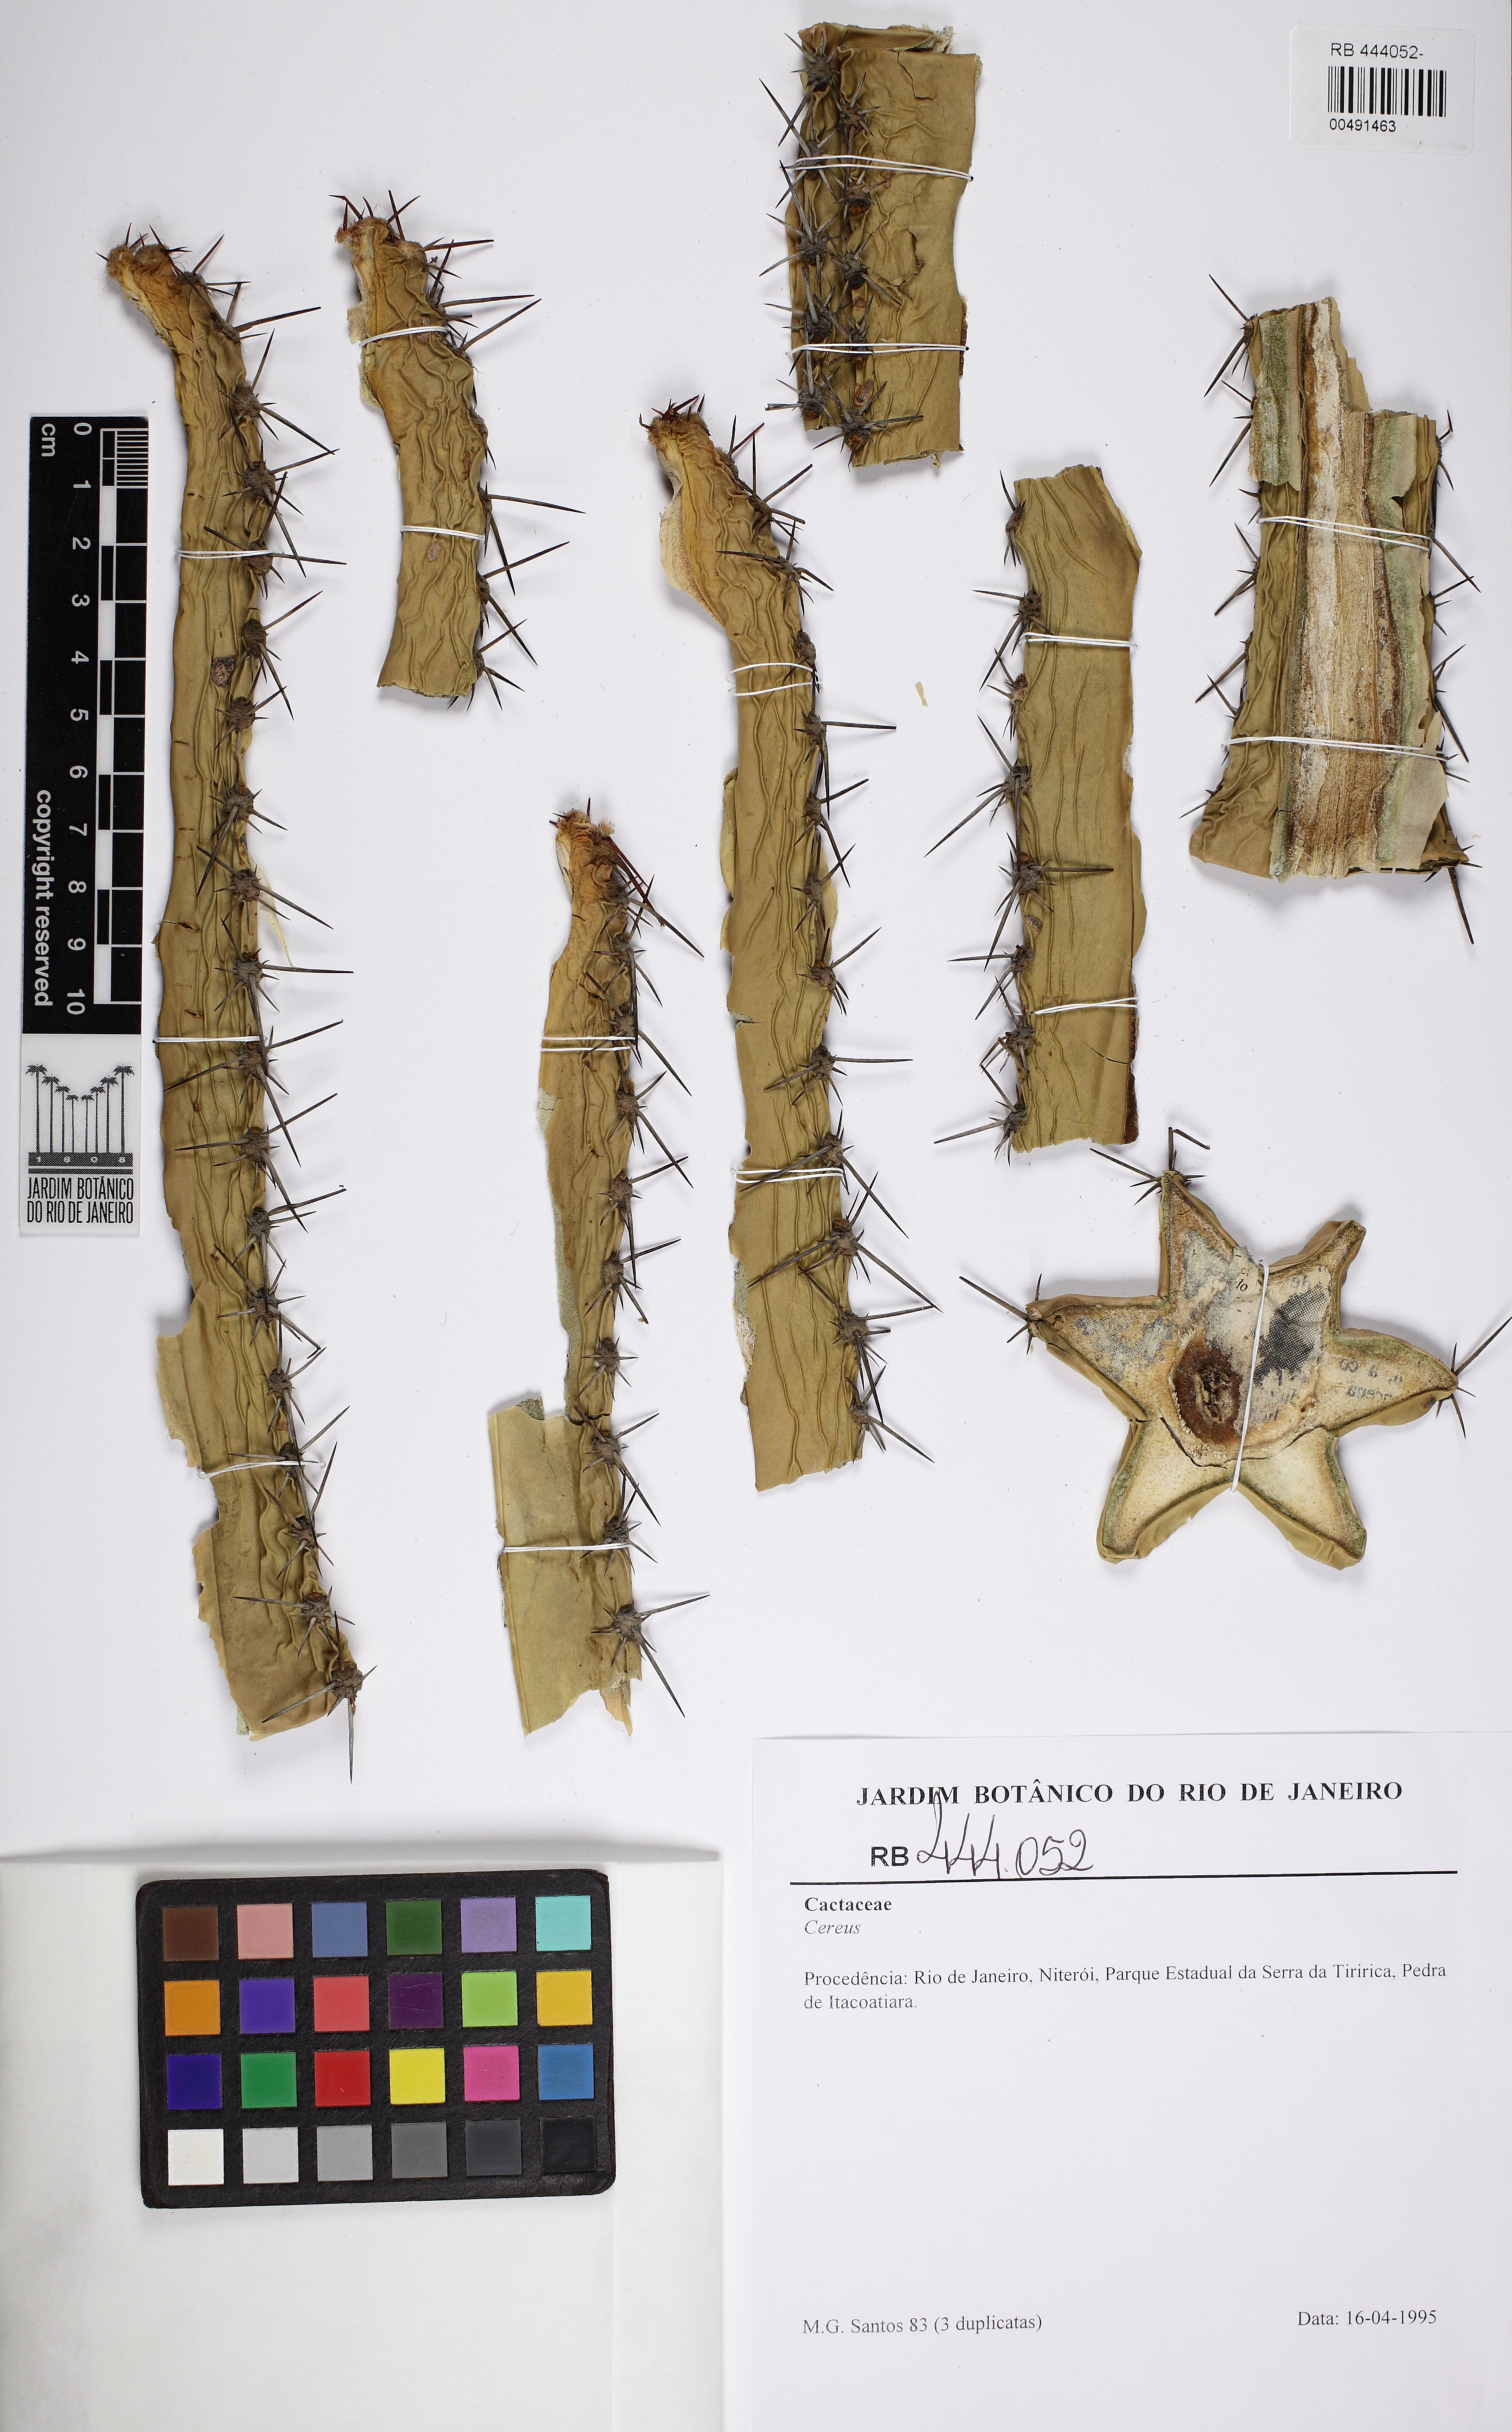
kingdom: Plantae
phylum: Tracheophyta
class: Magnoliopsida
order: Caryophyllales
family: Cactaceae
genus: Cereus
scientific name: Cereus fernambucensis
